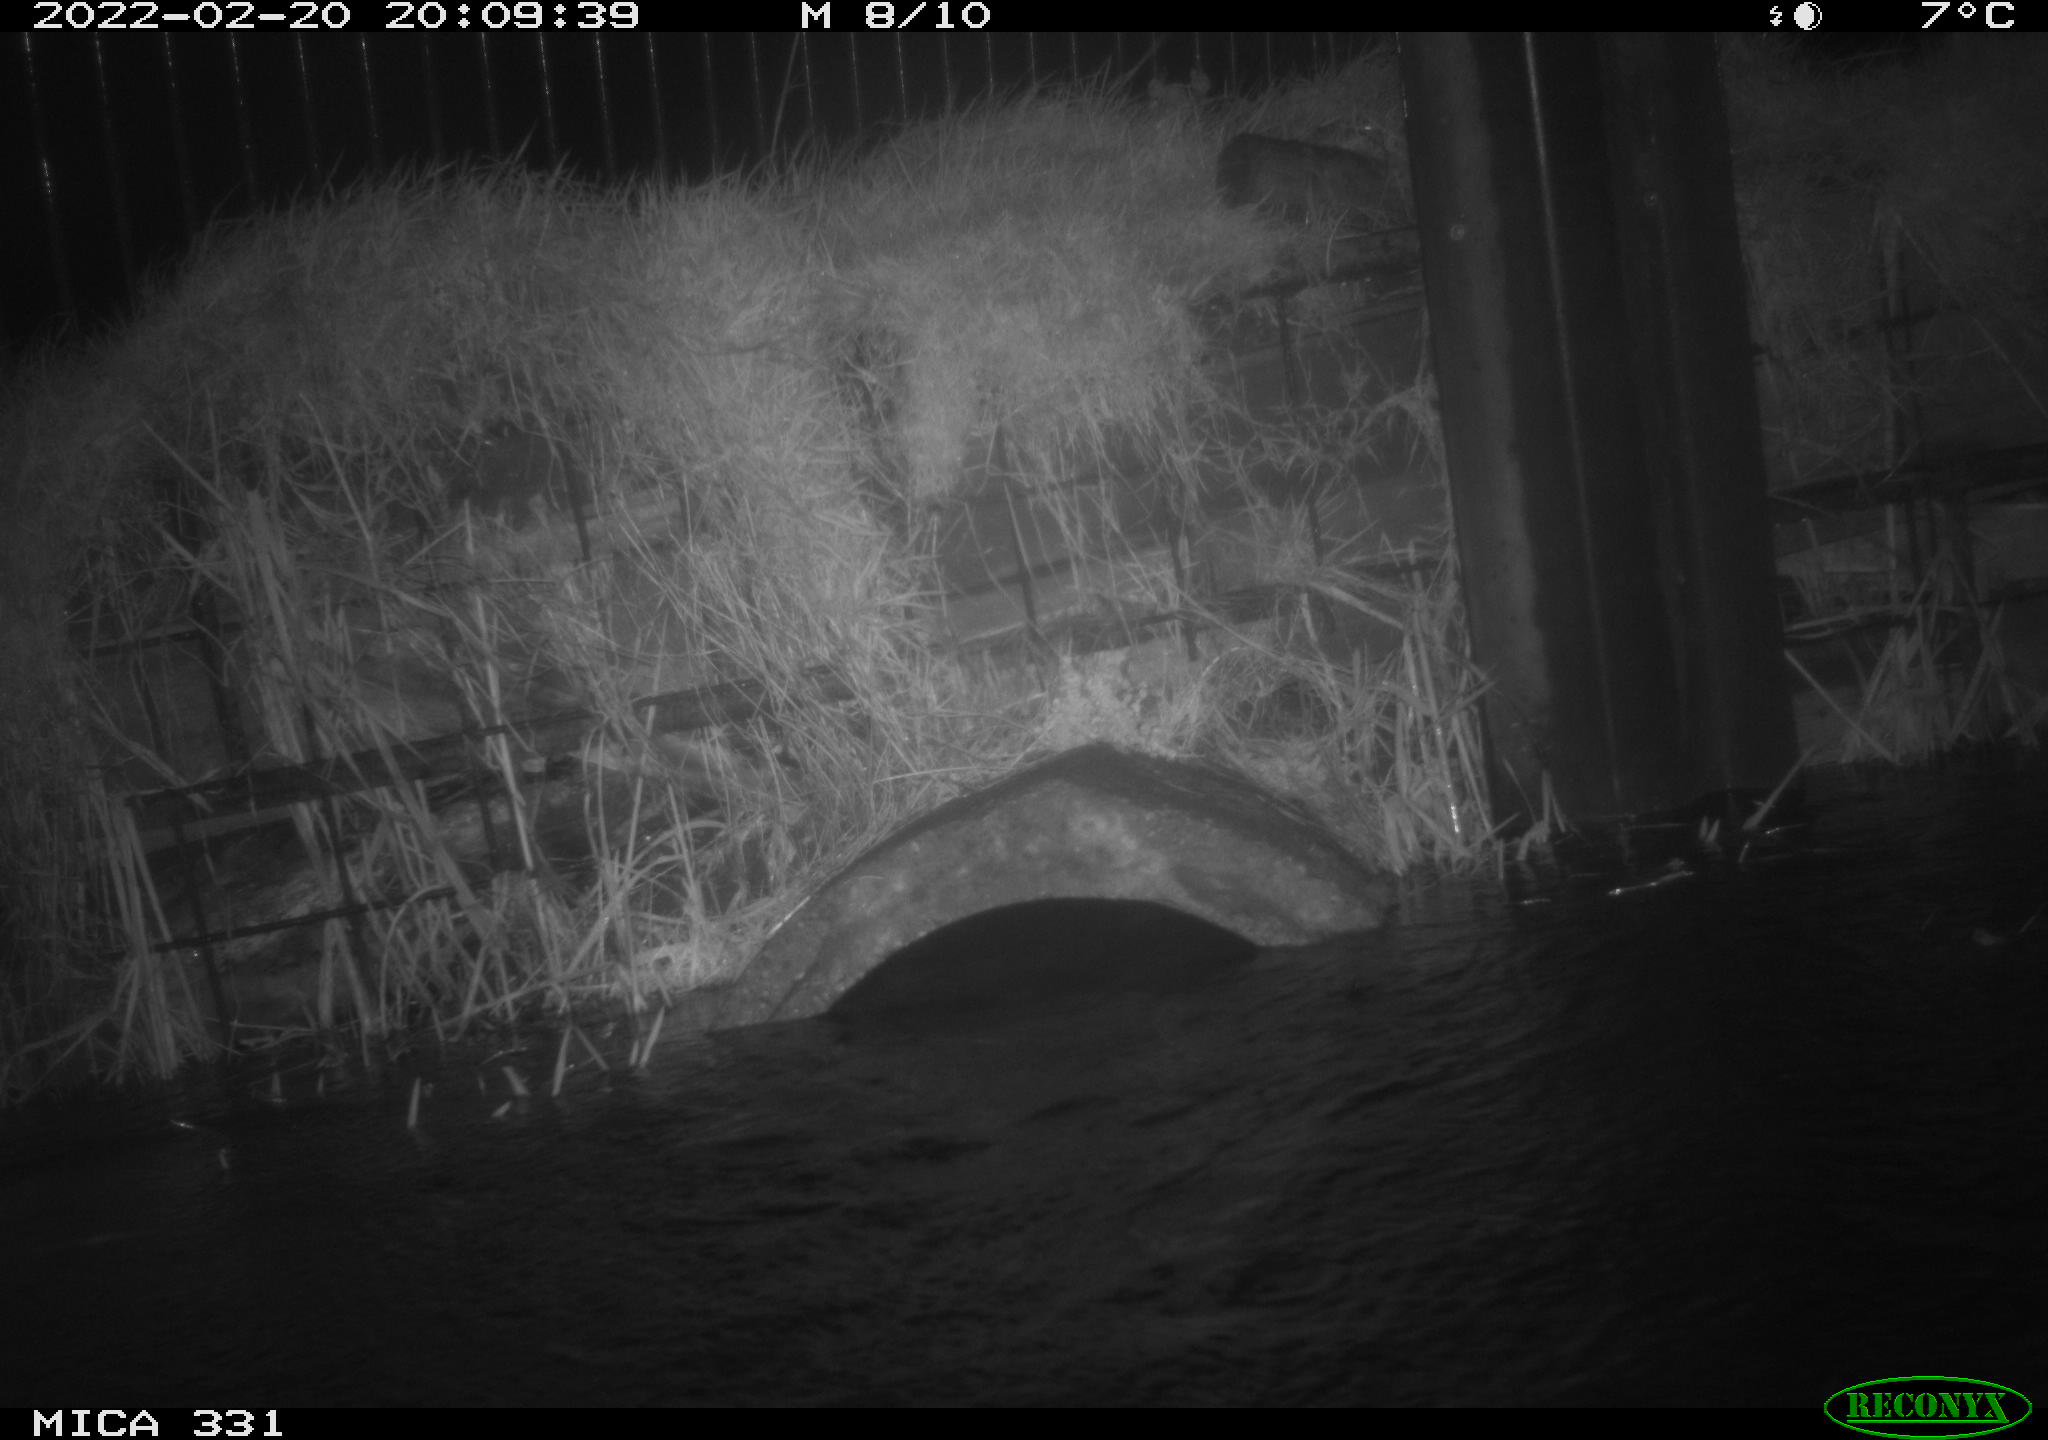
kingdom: Animalia
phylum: Chordata
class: Mammalia
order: Rodentia
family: Muridae
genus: Rattus
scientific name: Rattus norvegicus
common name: Brown rat
